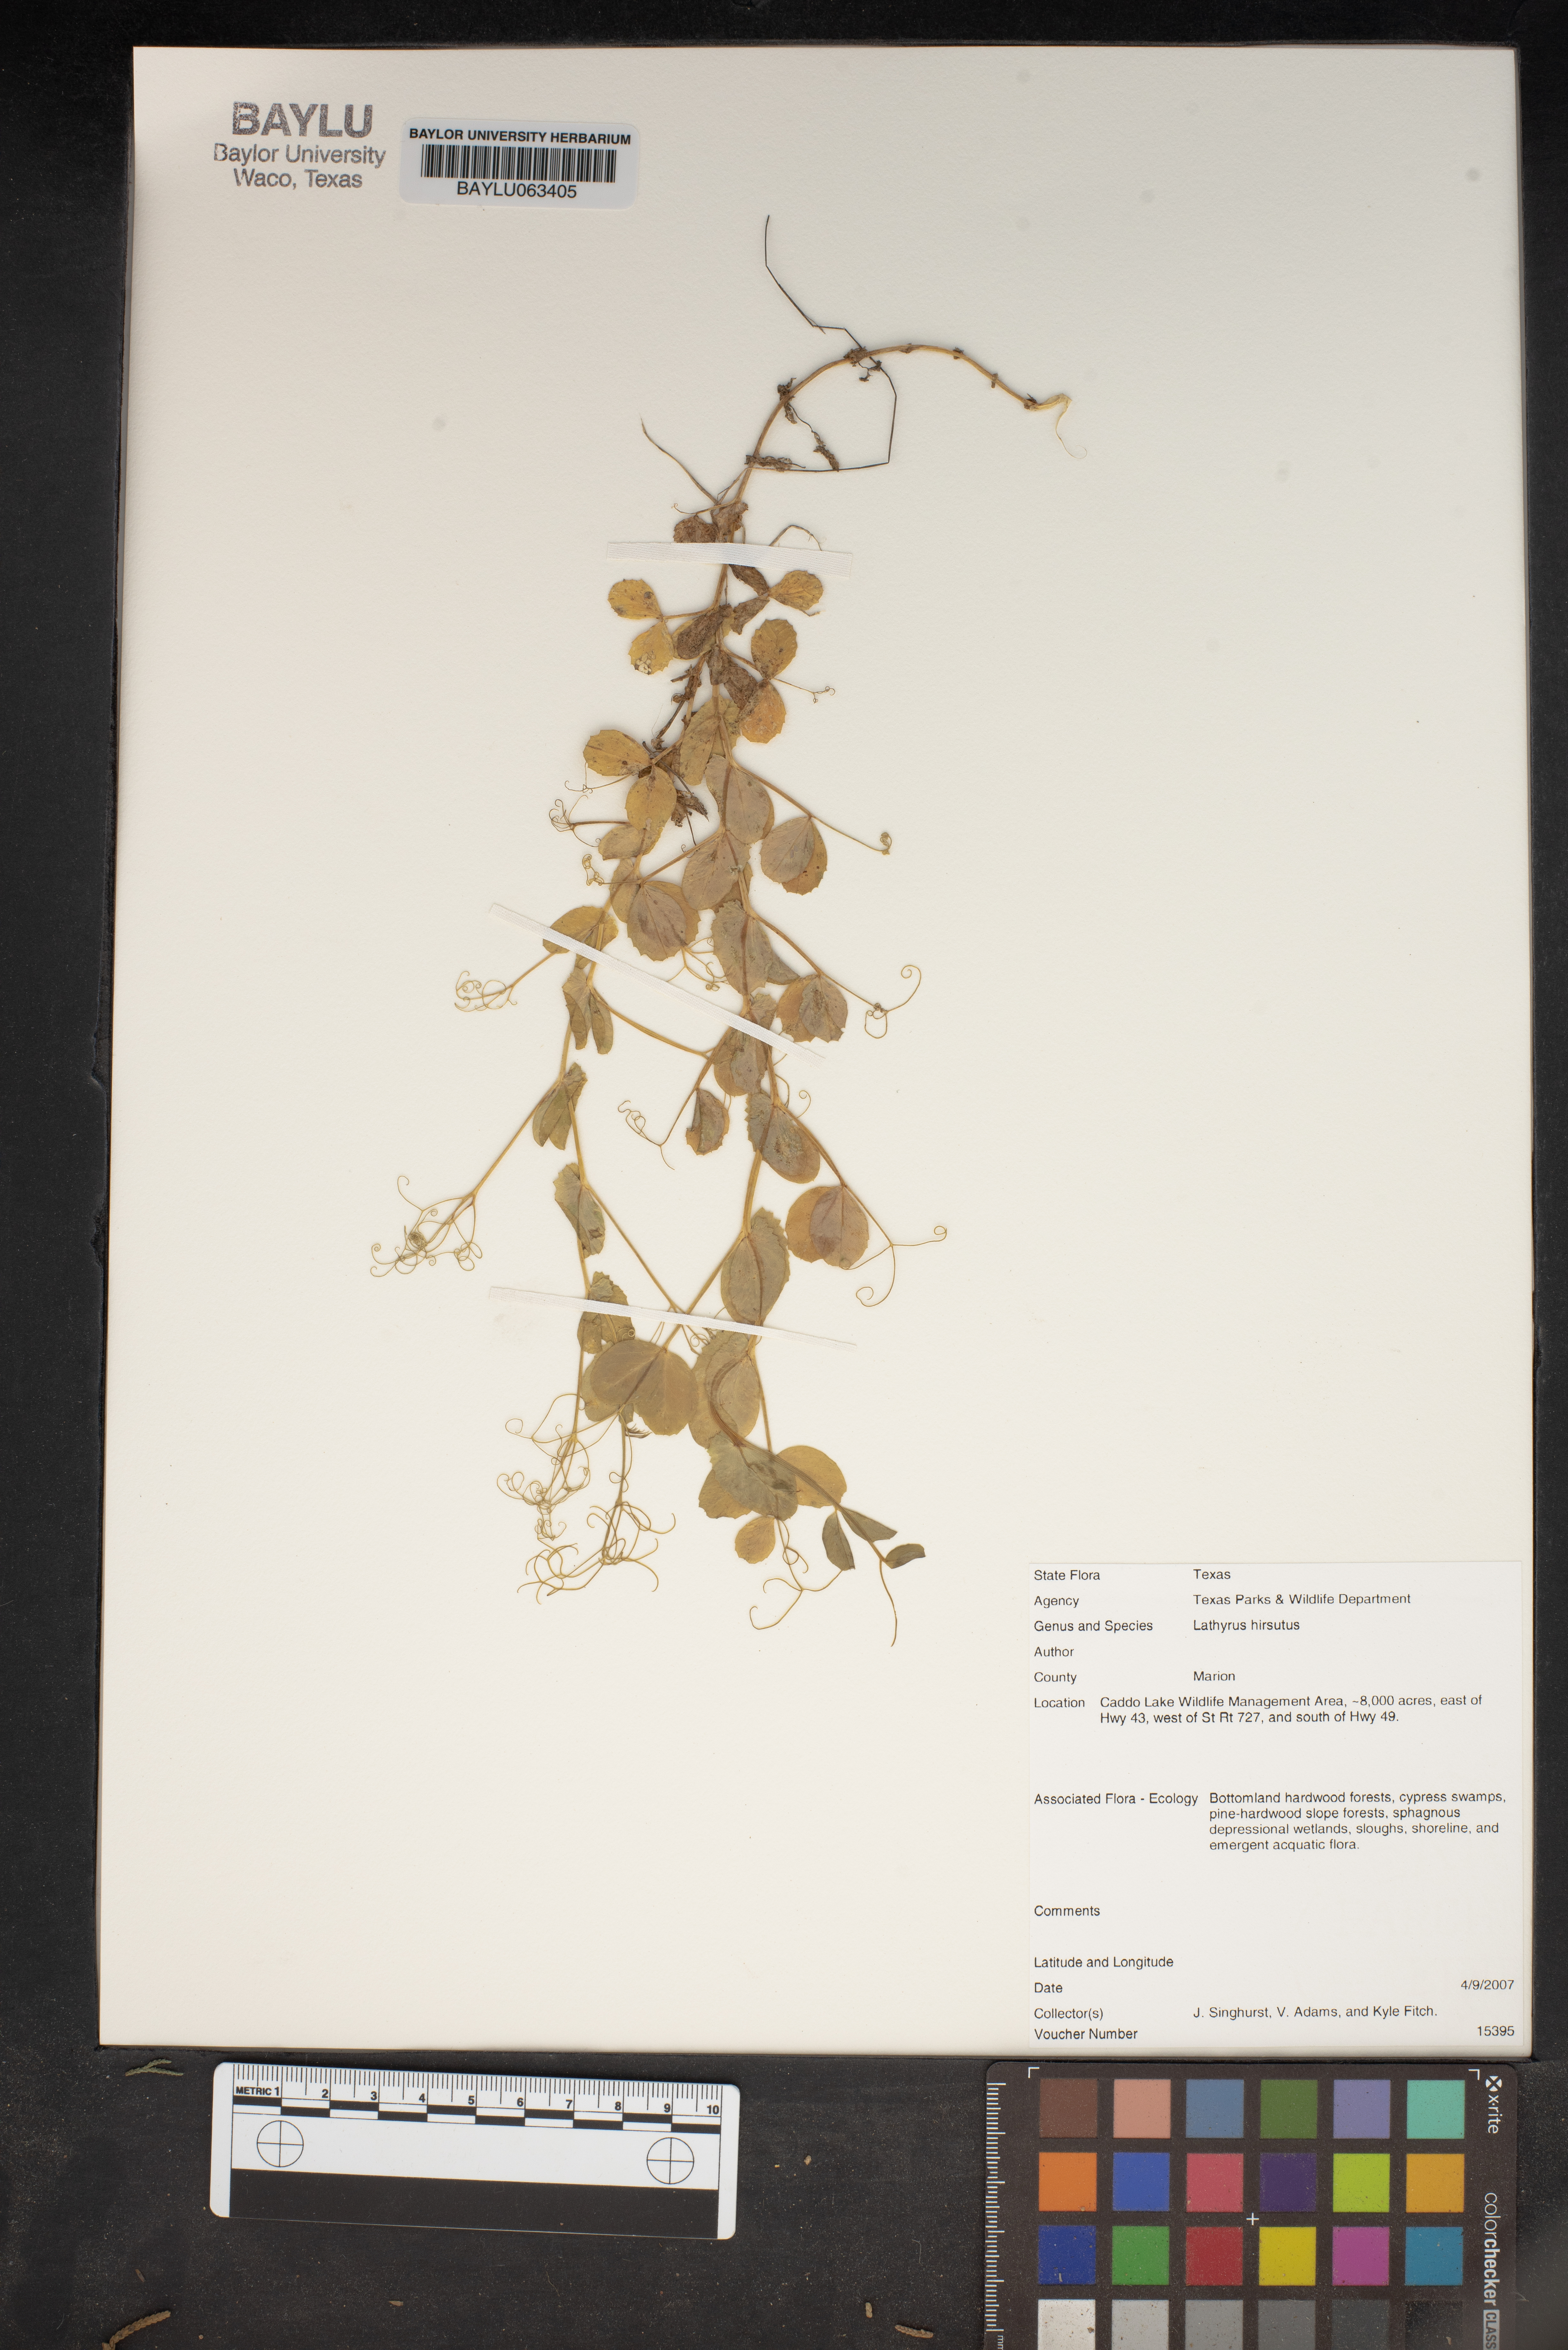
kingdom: Plantae
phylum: Tracheophyta
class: Magnoliopsida
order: Fabales
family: Fabaceae
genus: Lathyrus
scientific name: Lathyrus hirsutus
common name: Hairy vetchling
